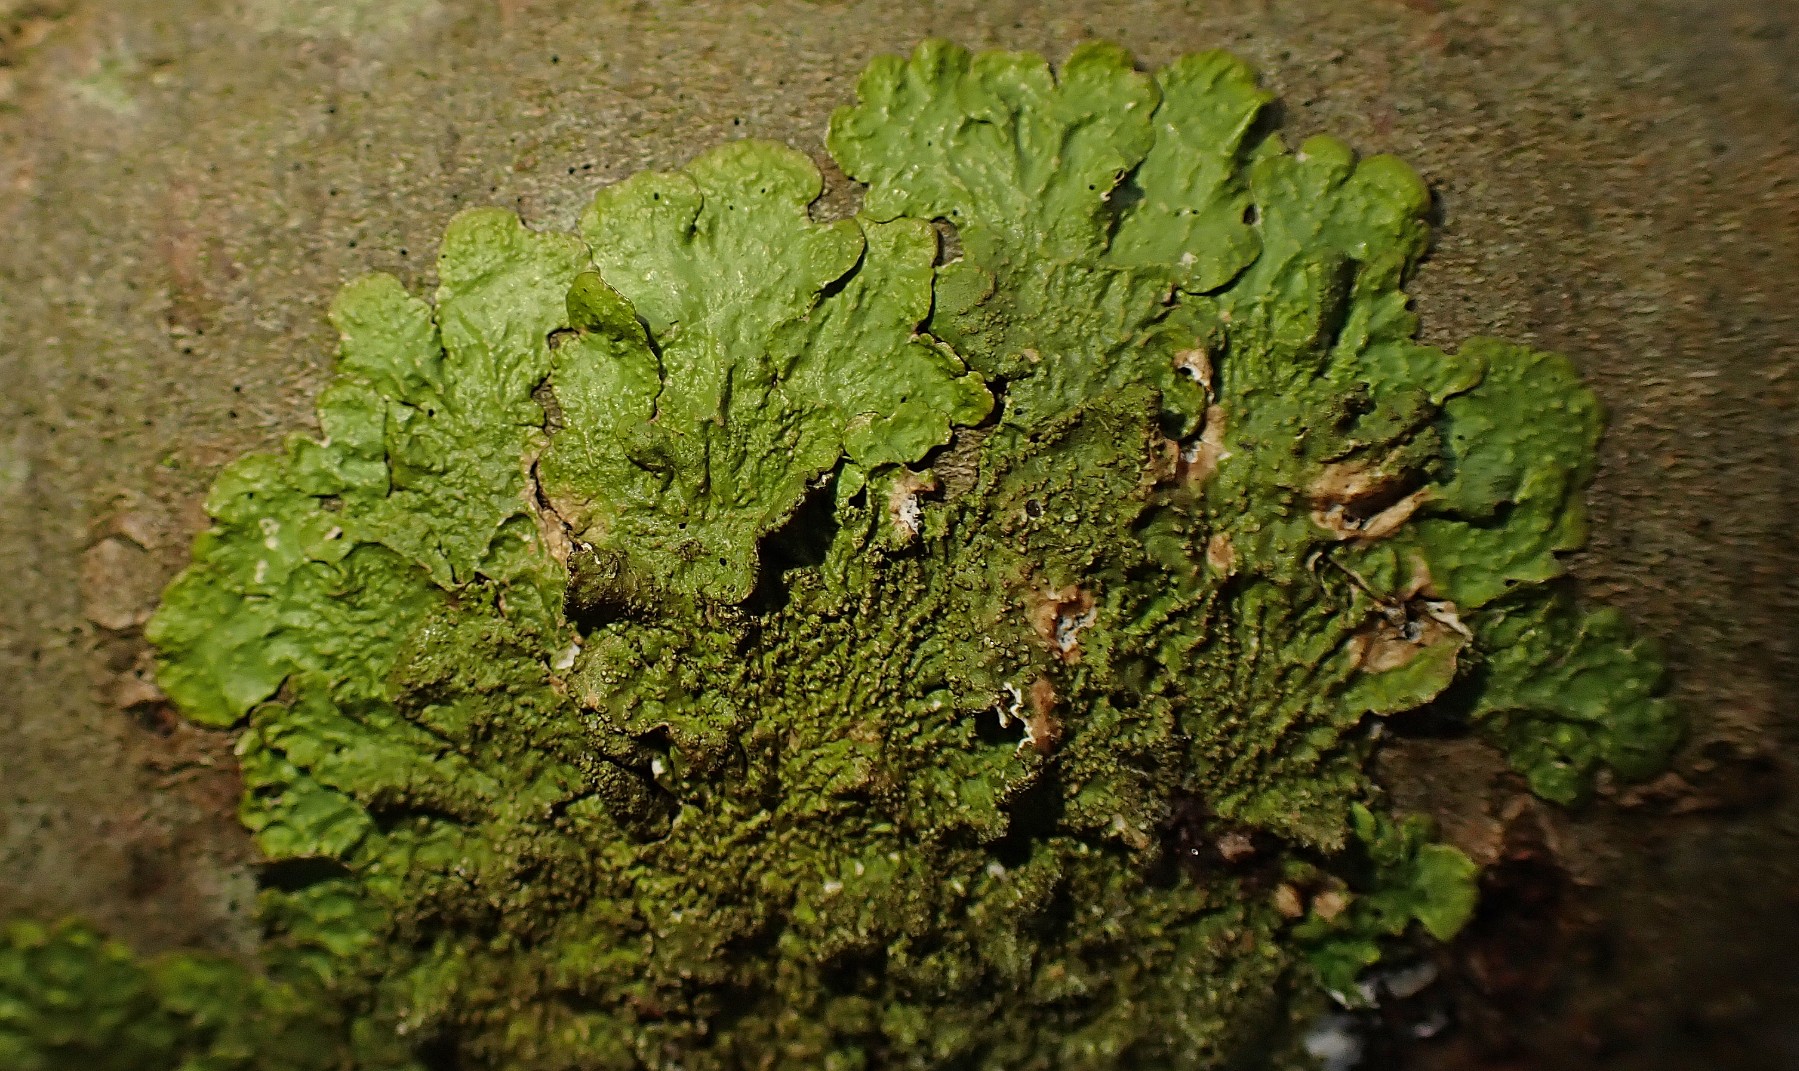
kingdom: Fungi
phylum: Ascomycota
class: Lecanoromycetes
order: Lecanorales
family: Parmeliaceae
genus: Melanelixia
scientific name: Melanelixia subaurifera
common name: guldpudret skållav
